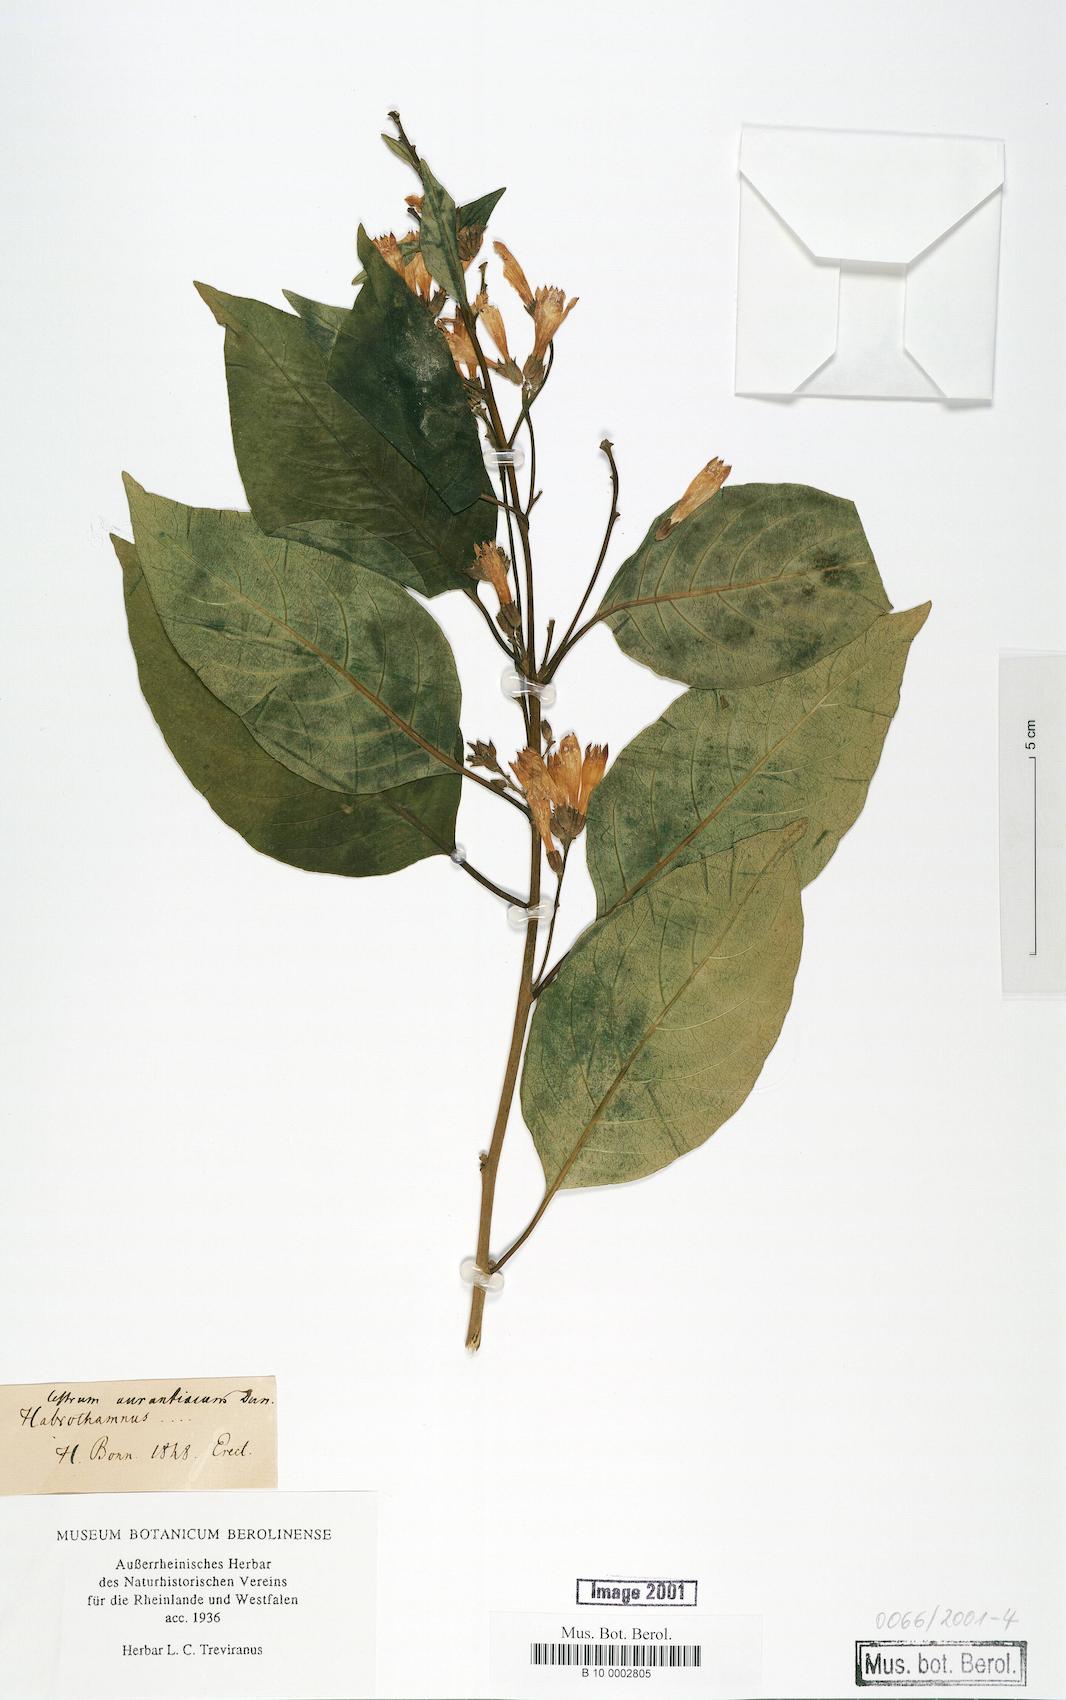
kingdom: Plantae
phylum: Tracheophyta
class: Magnoliopsida
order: Solanales
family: Solanaceae
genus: Cestrum
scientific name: Cestrum aurantiacum
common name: Orange cestrum
